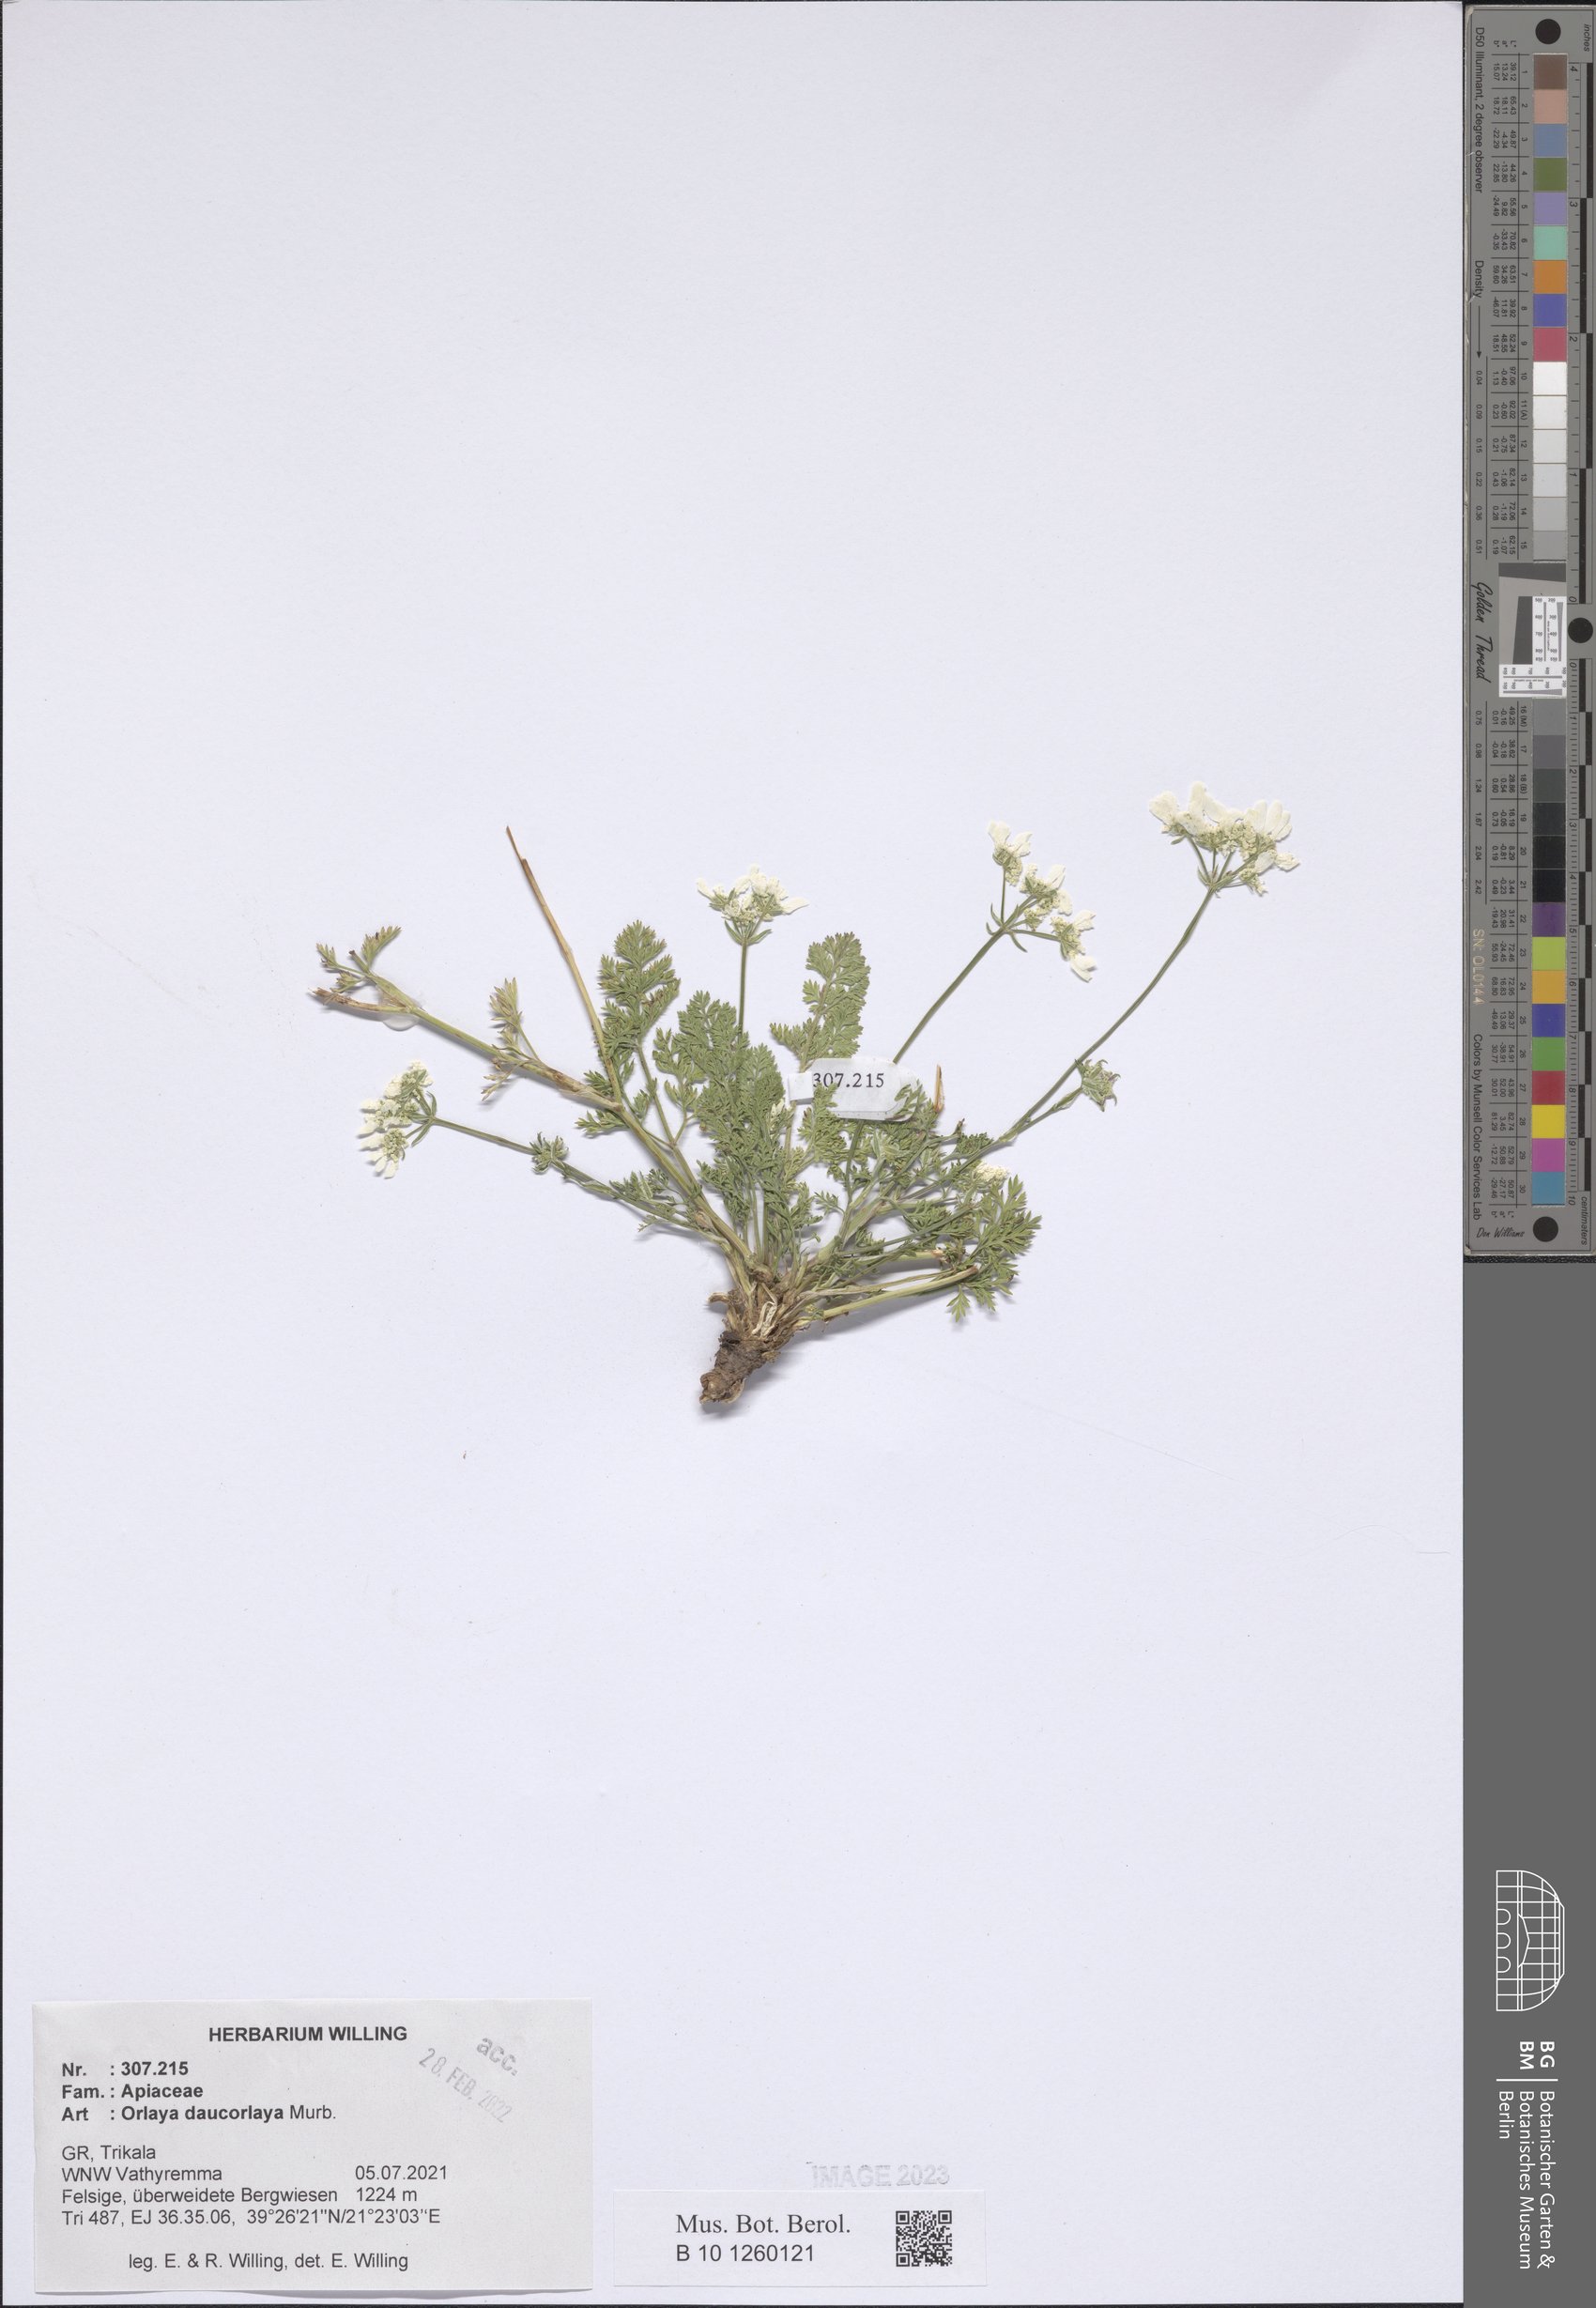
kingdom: Plantae
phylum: Tracheophyta
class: Magnoliopsida
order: Apiales
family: Apiaceae
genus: Orlaya
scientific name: Orlaya daucorlaya
